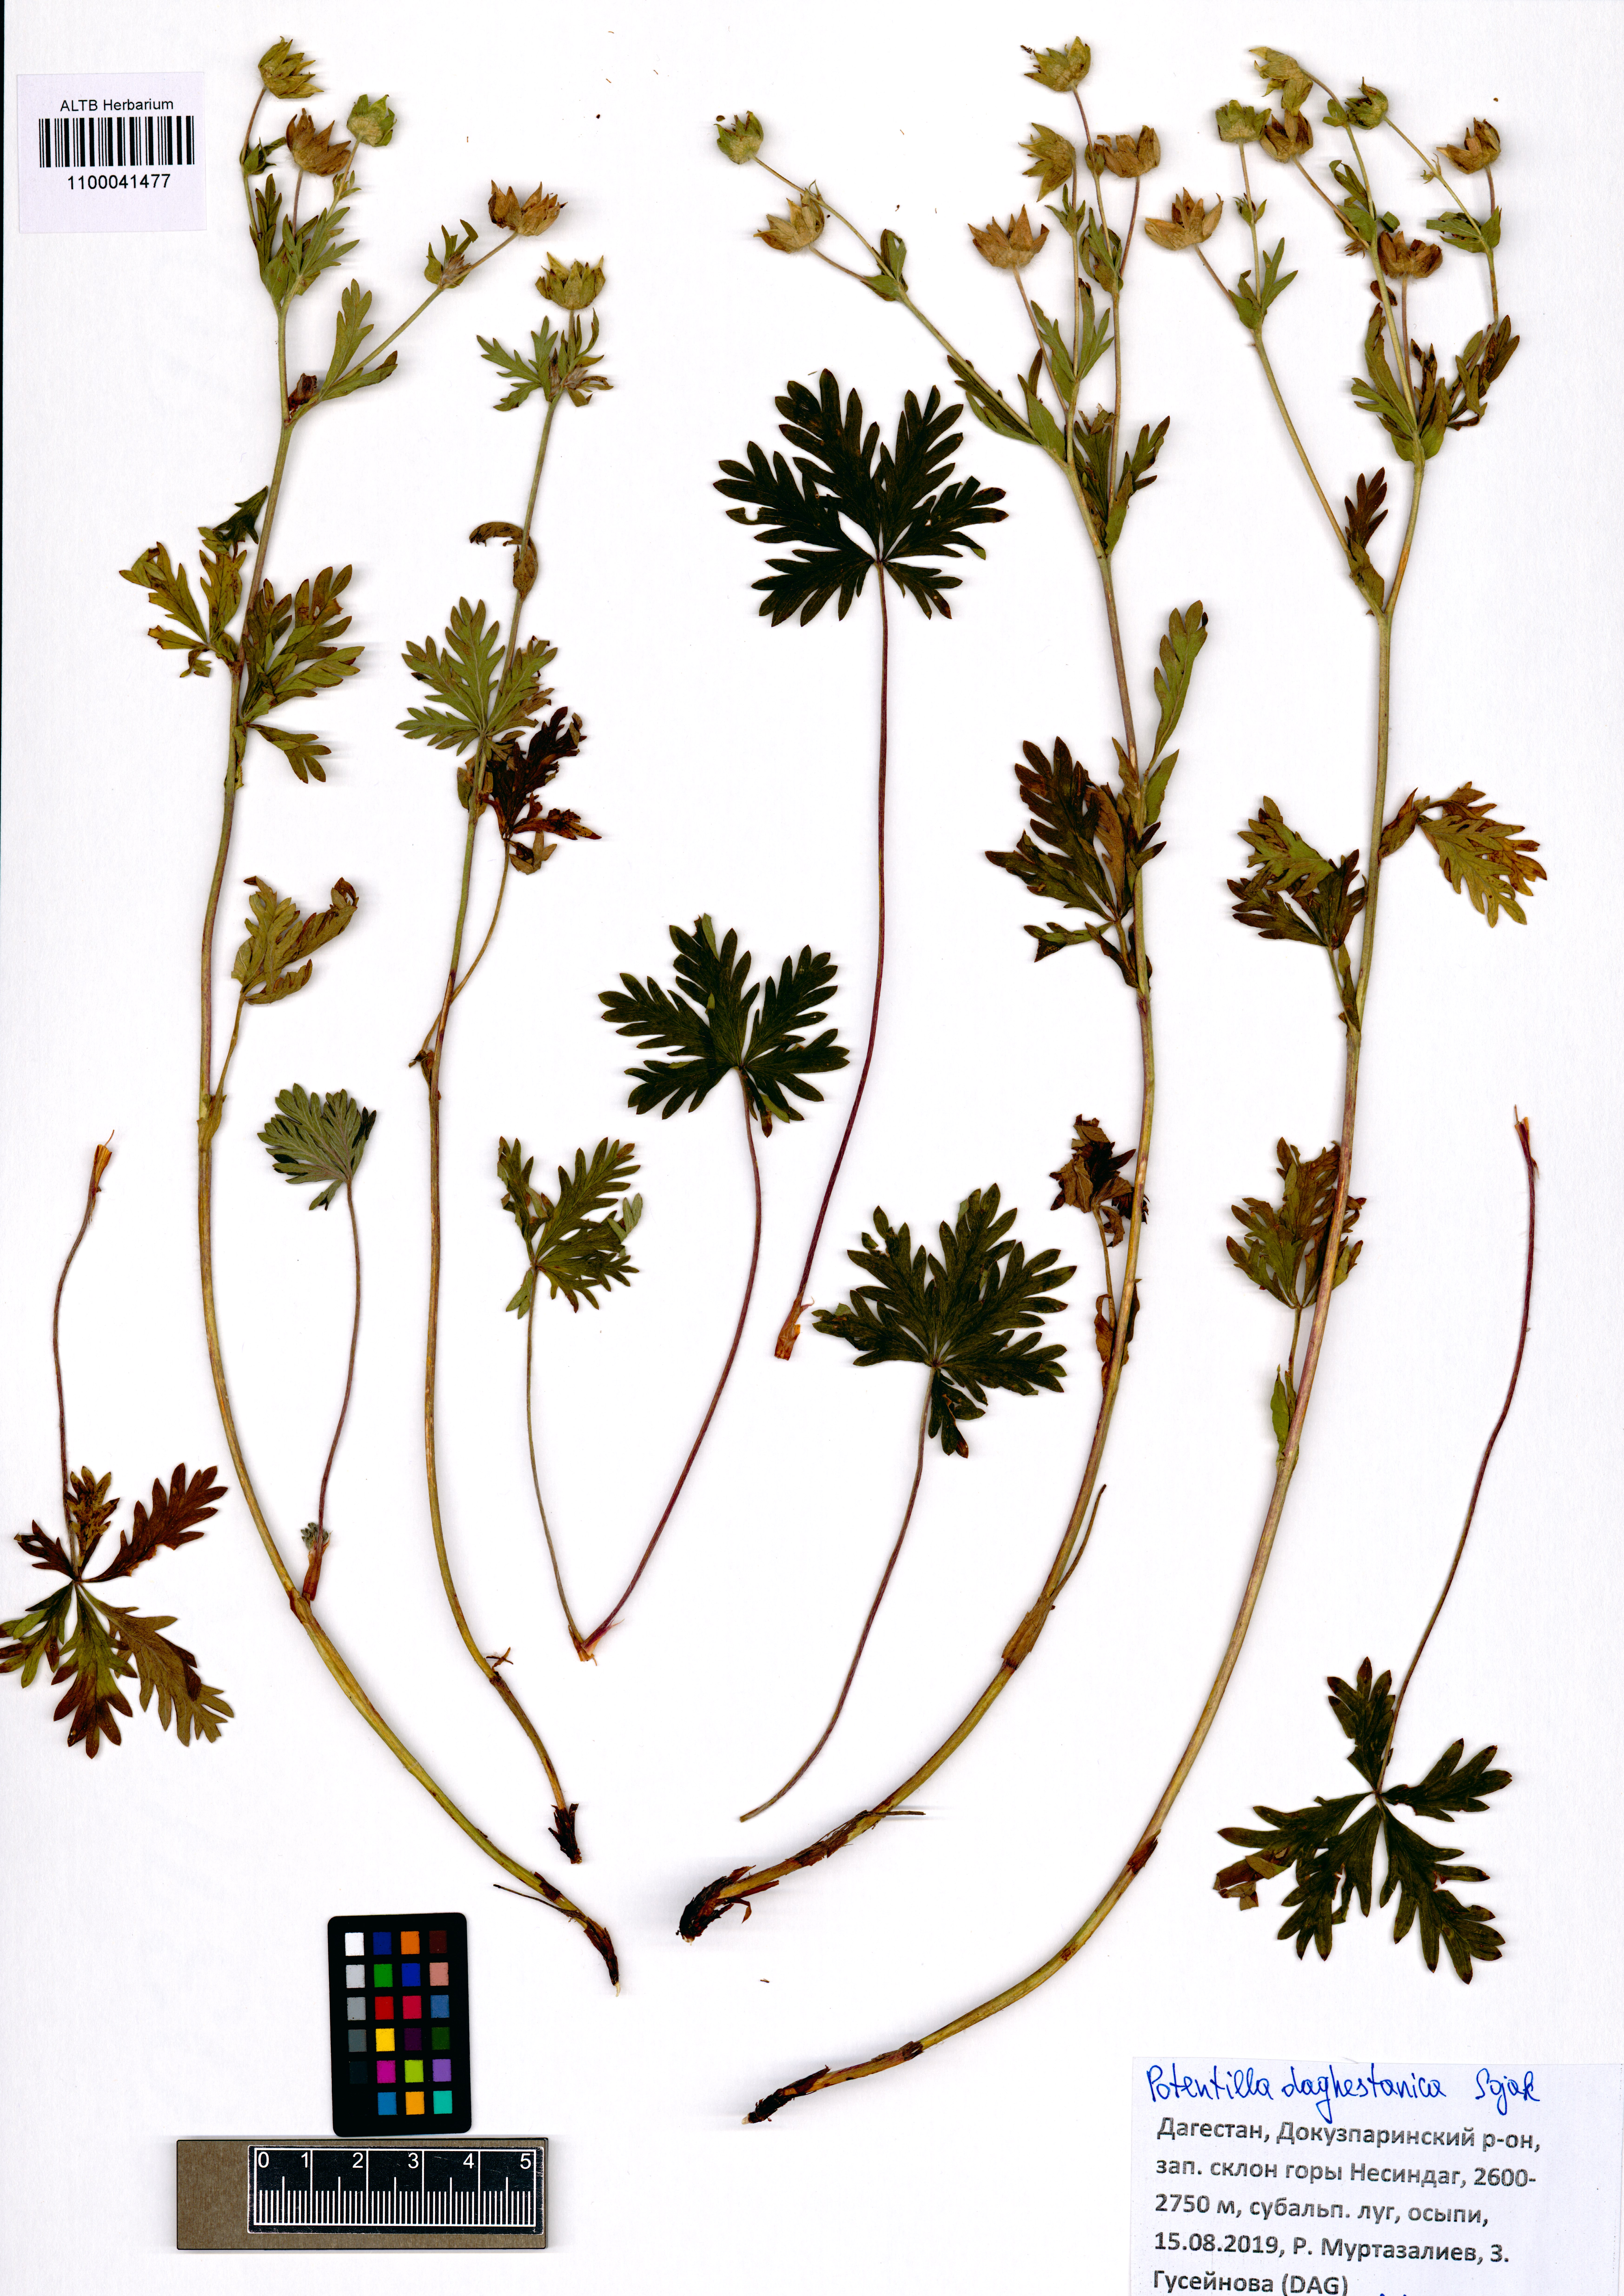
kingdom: Plantae
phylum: Tracheophyta
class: Magnoliopsida
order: Rosales
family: Rosaceae
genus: Potentilla
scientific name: Potentilla daghestanica
